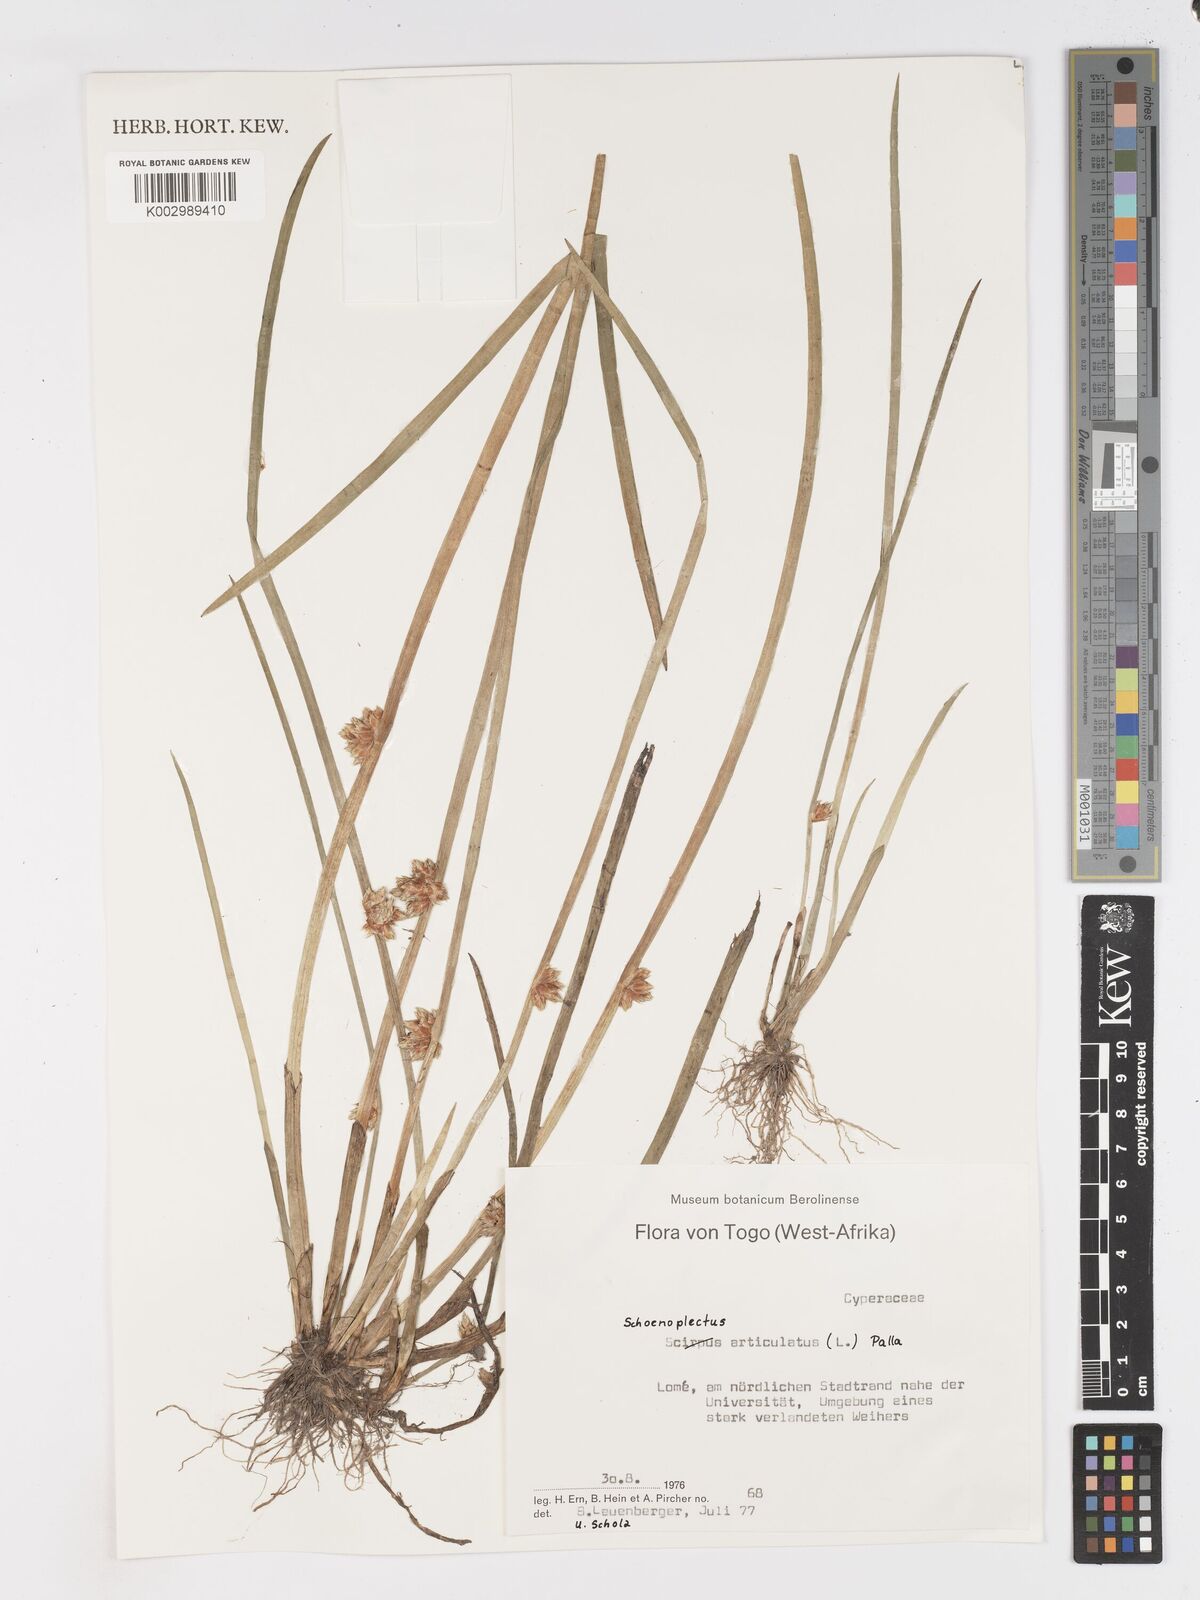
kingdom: Plantae
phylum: Tracheophyta
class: Liliopsida
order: Poales
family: Cyperaceae
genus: Schoenoplectiella
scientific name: Schoenoplectiella articulata
